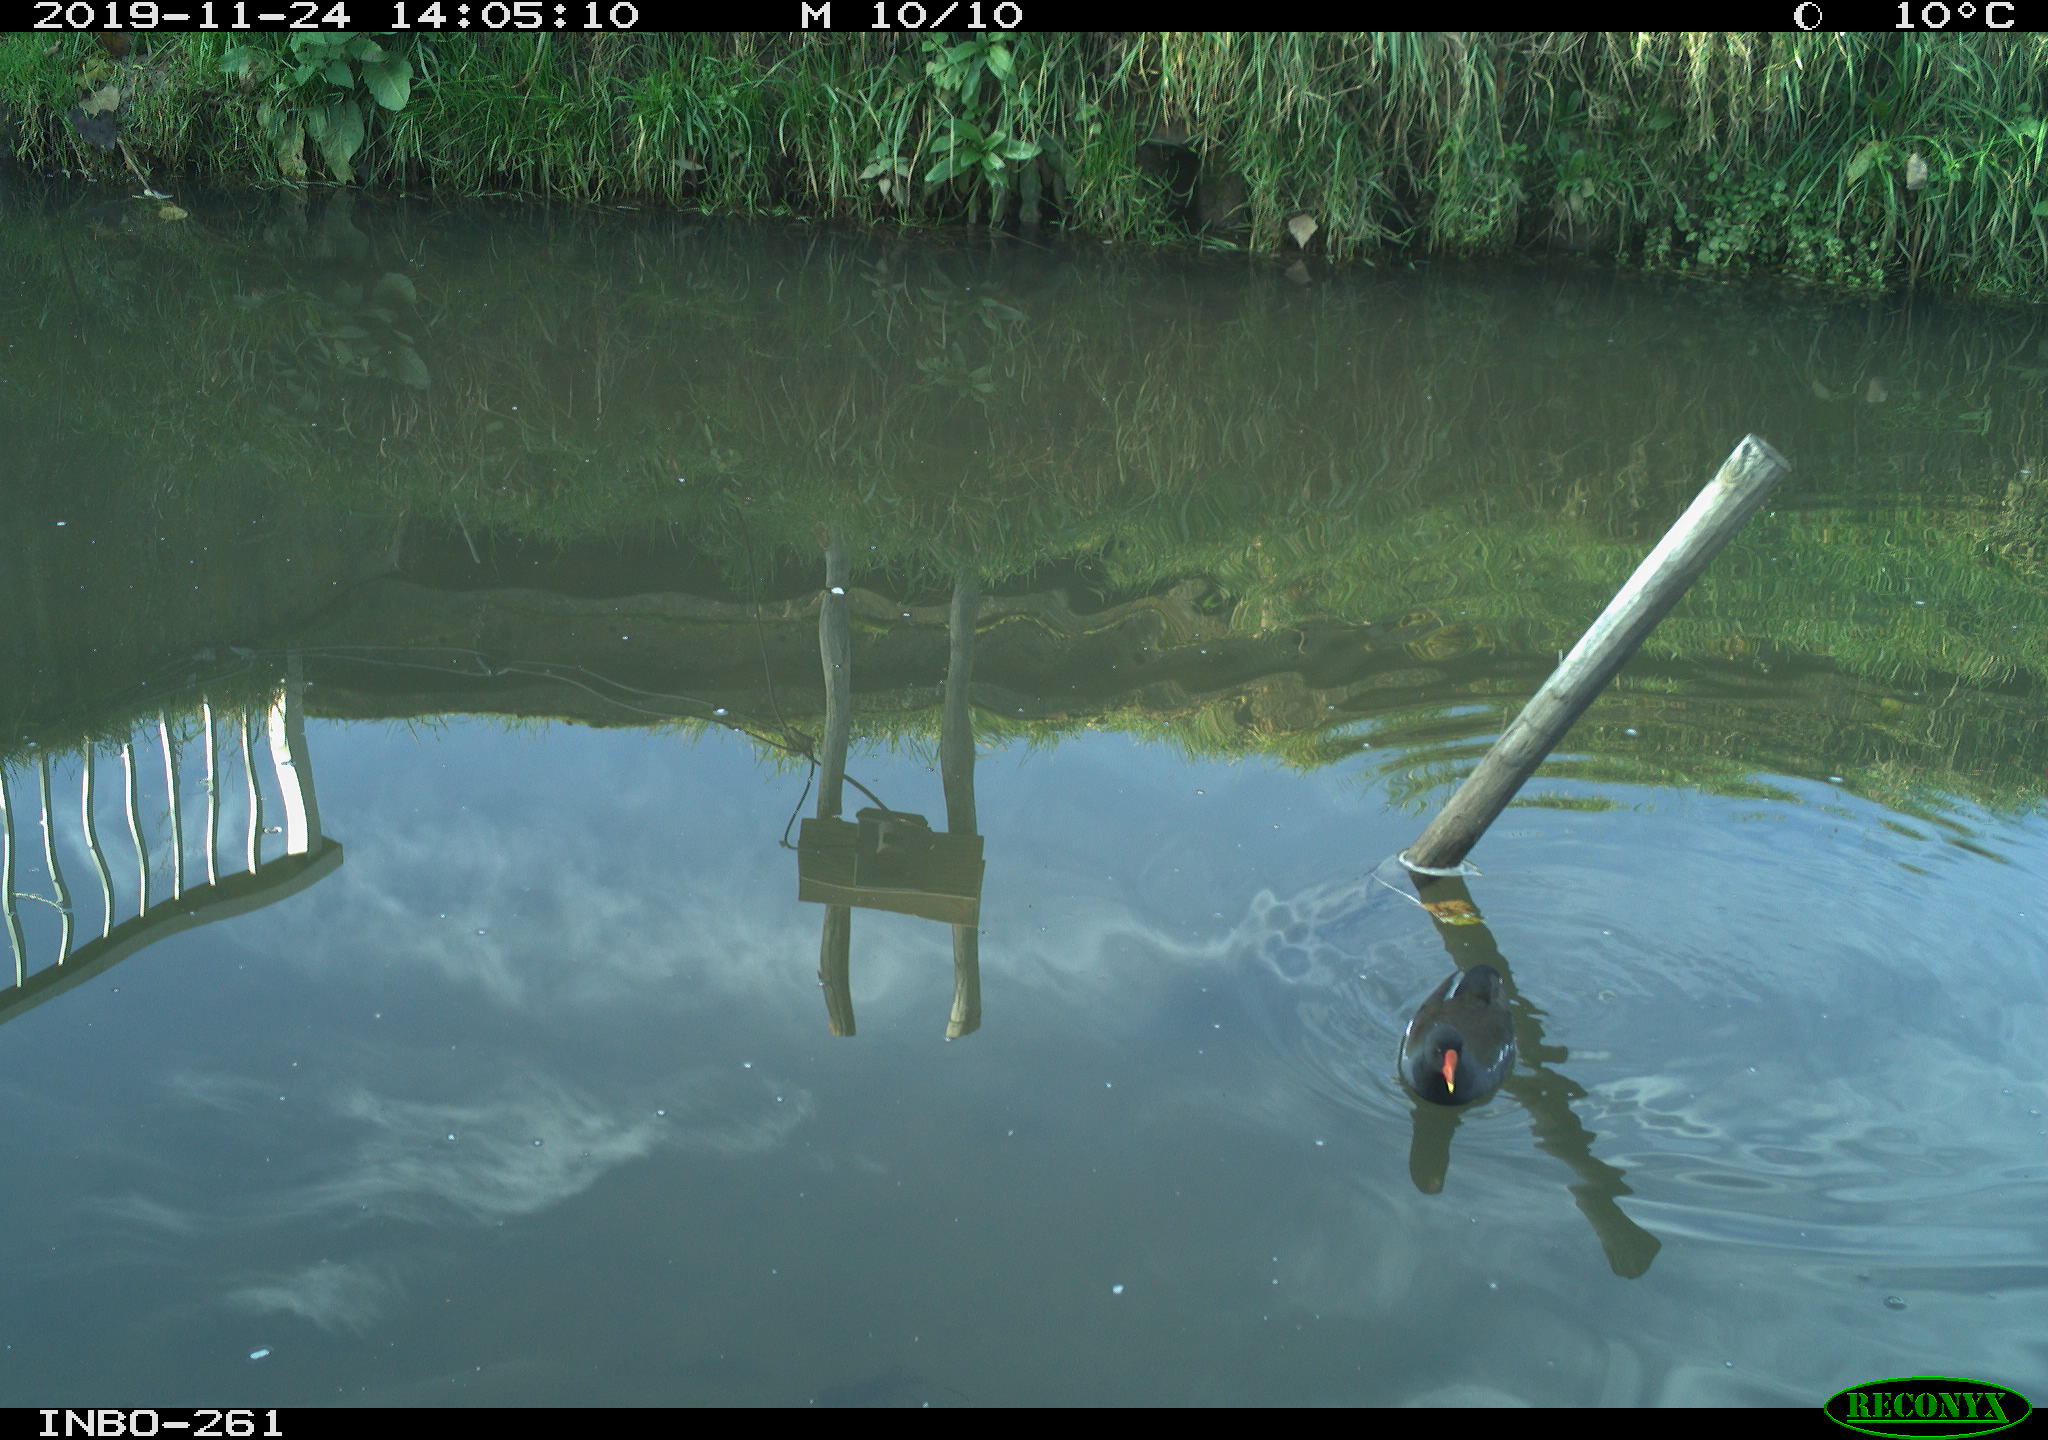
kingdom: Animalia
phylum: Chordata
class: Aves
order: Gruiformes
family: Rallidae
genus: Gallinula
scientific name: Gallinula chloropus
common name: Common moorhen
